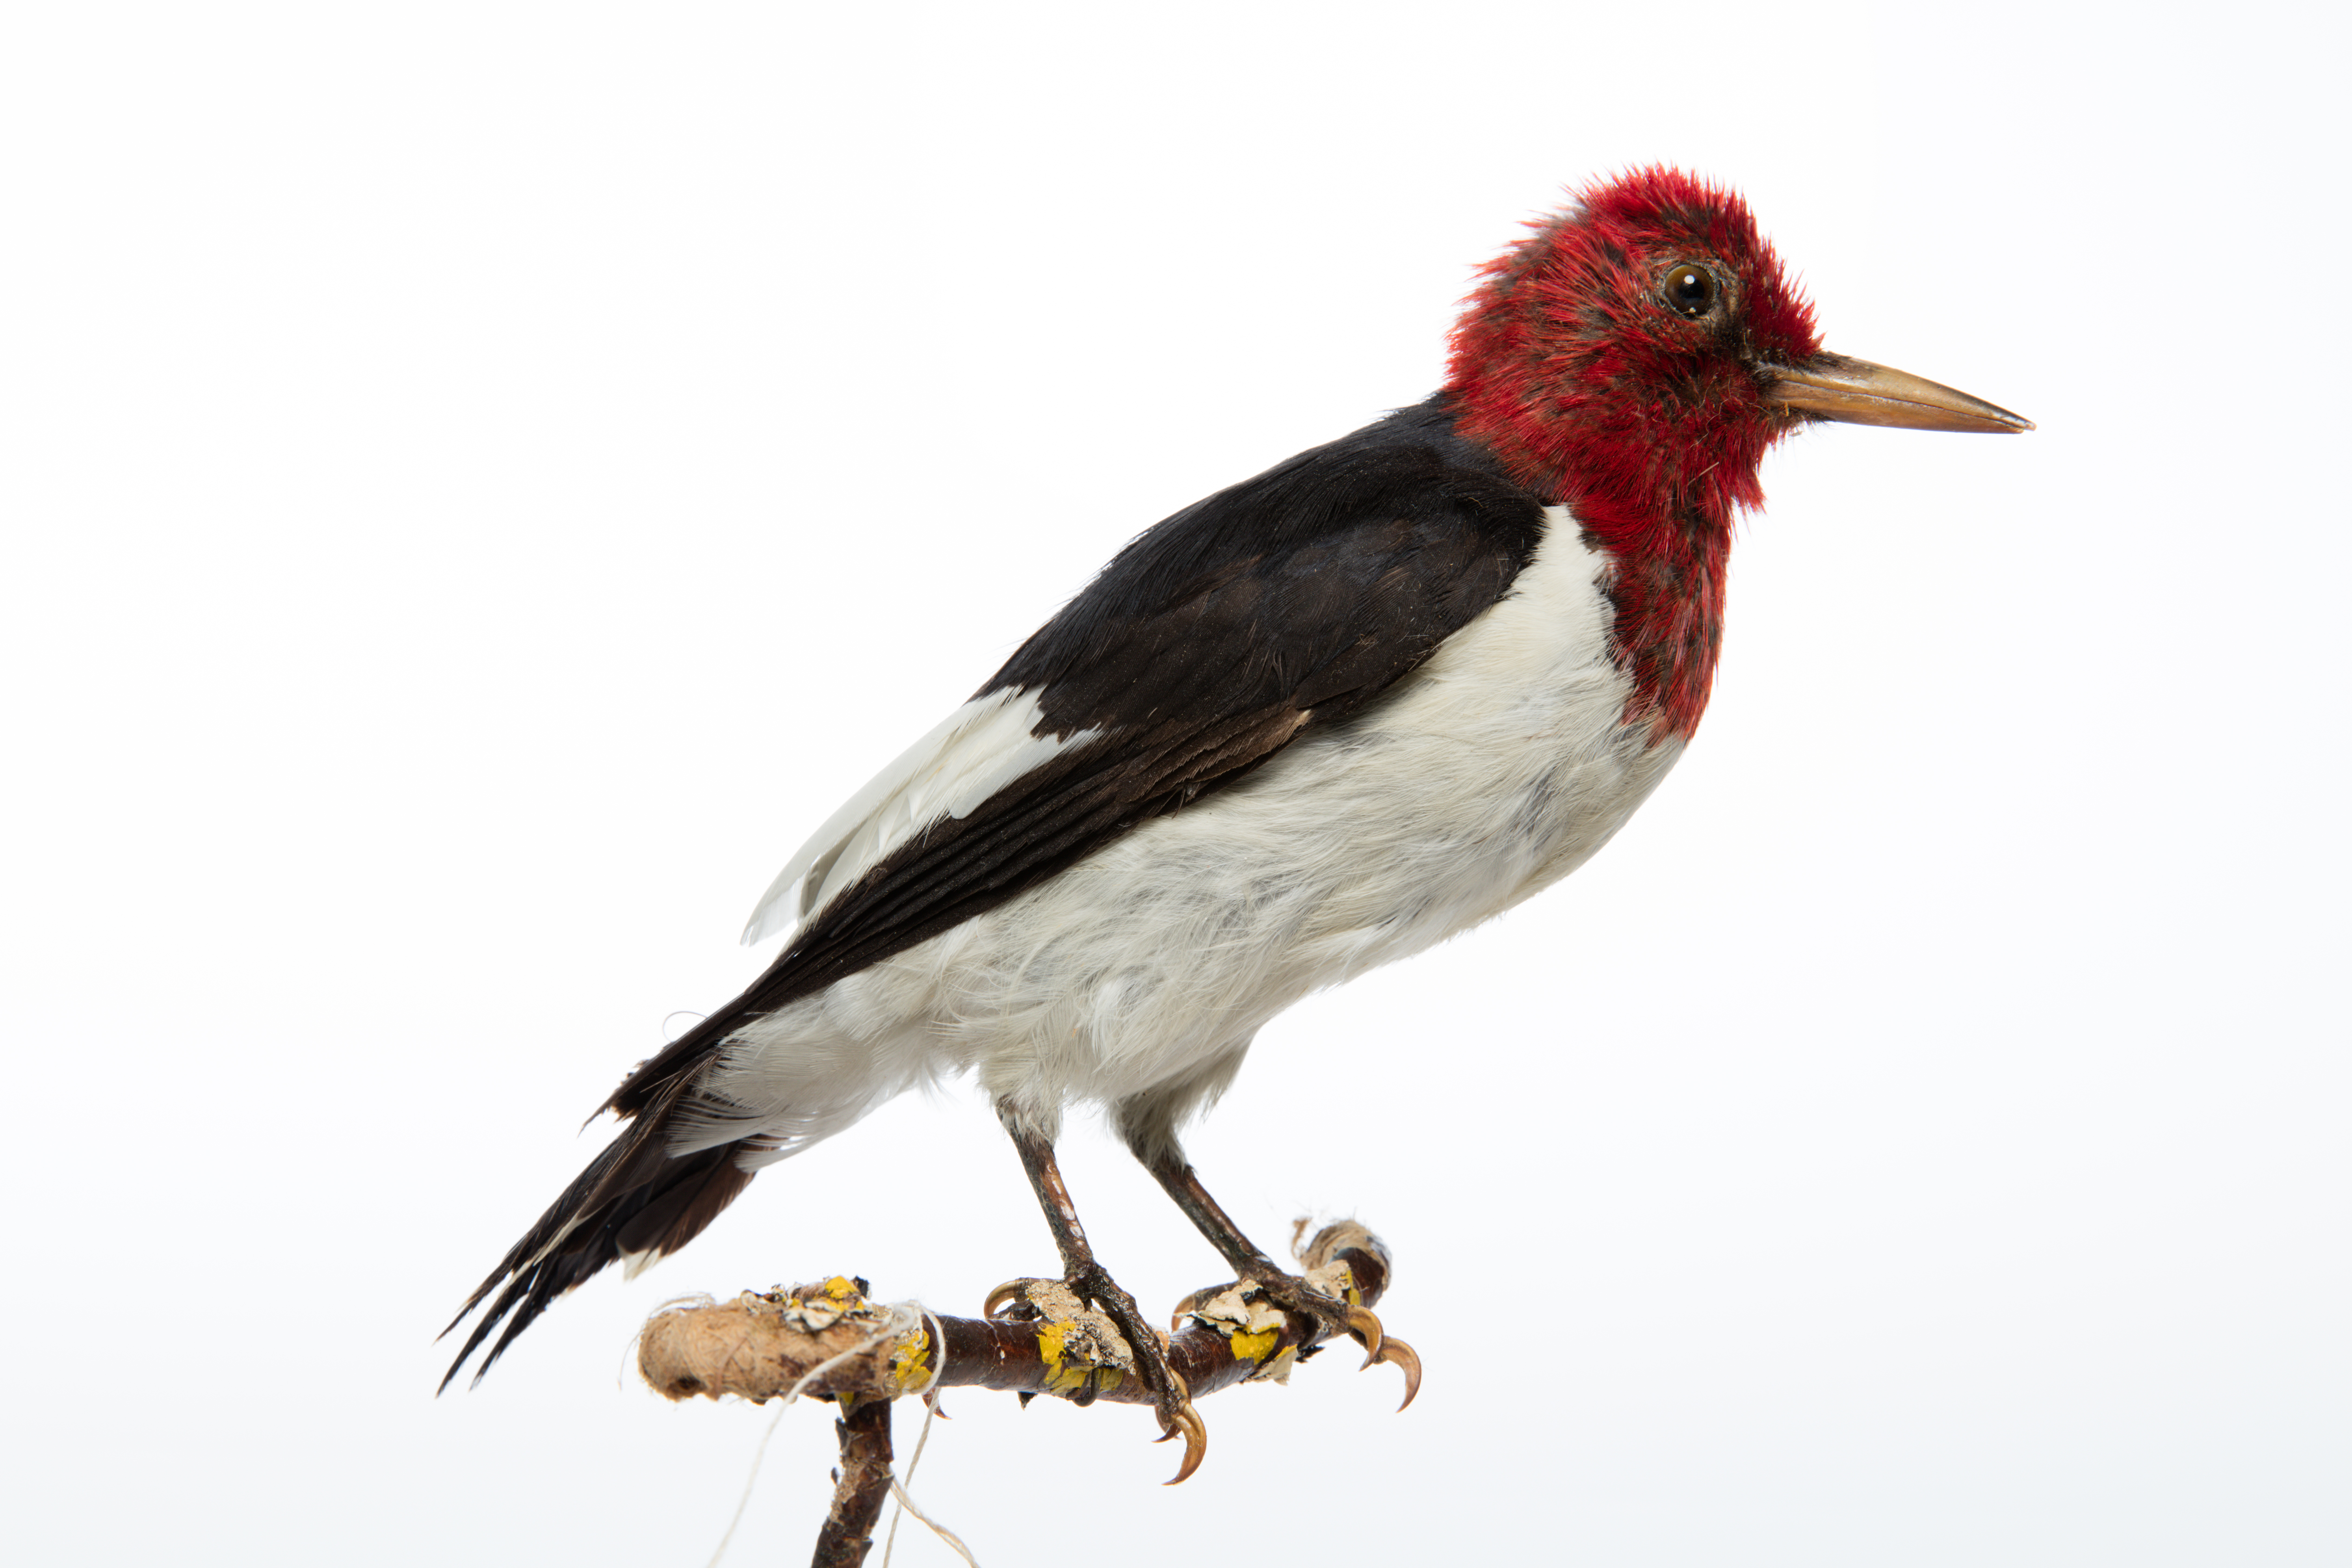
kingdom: Animalia
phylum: Chordata
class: Aves
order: Piciformes
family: Picidae
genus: Melanerpes
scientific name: Melanerpes erythrocephalus
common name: Red-headed woodpecker
